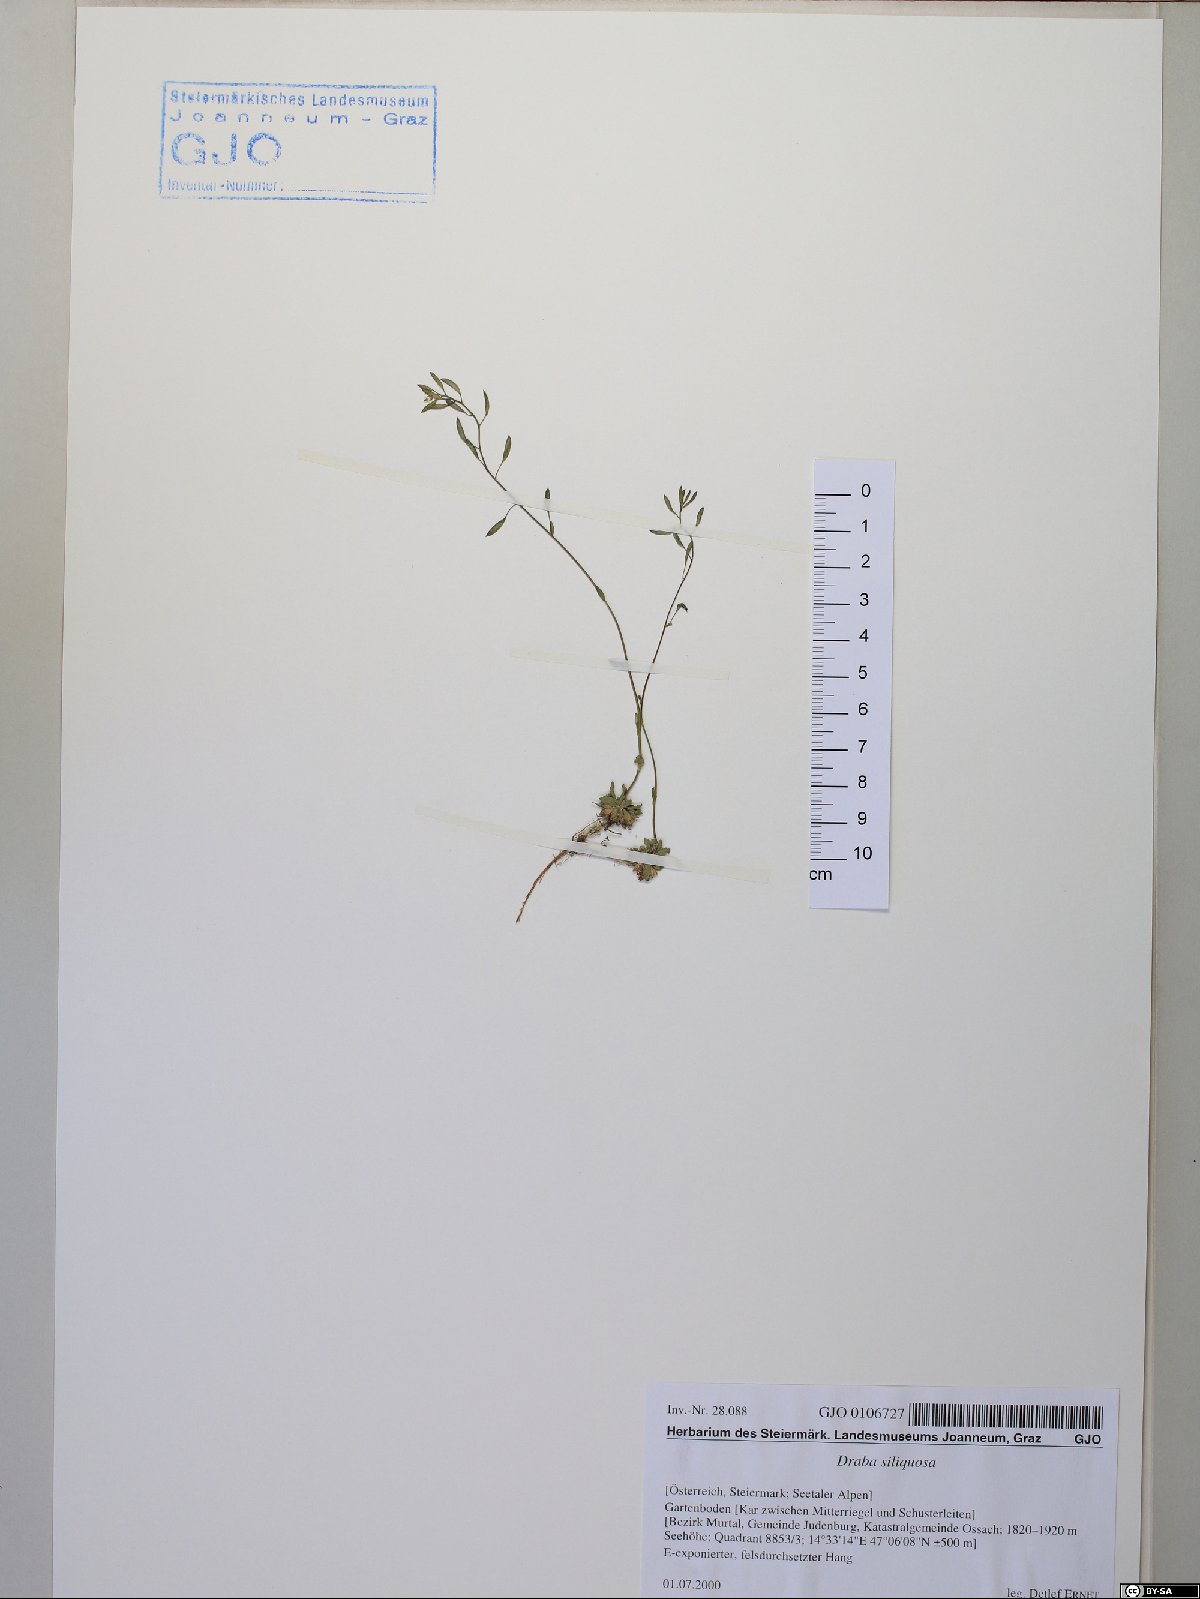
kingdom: Plantae
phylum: Tracheophyta
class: Magnoliopsida
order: Brassicales
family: Brassicaceae
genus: Draba
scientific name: Draba siliquosa
